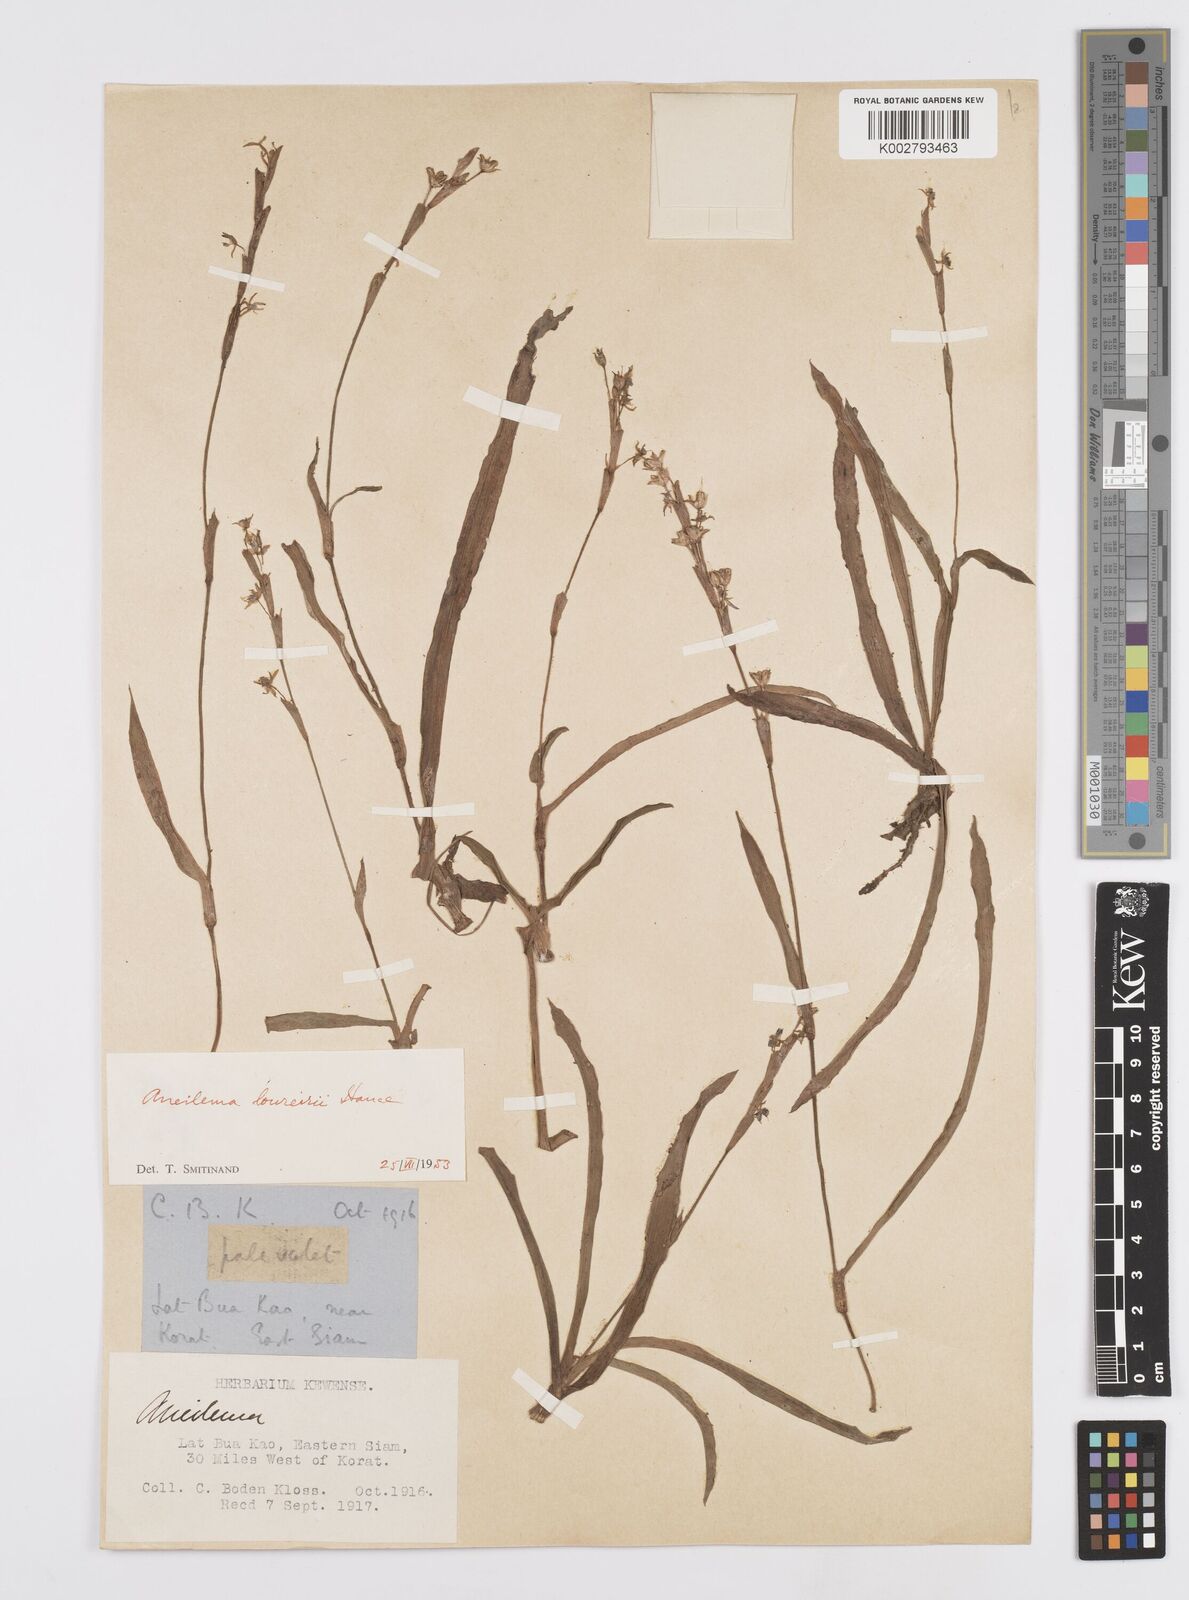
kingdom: Plantae
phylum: Tracheophyta
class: Liliopsida
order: Commelinales
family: Commelinaceae
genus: Murdannia
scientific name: Murdannia edulis
